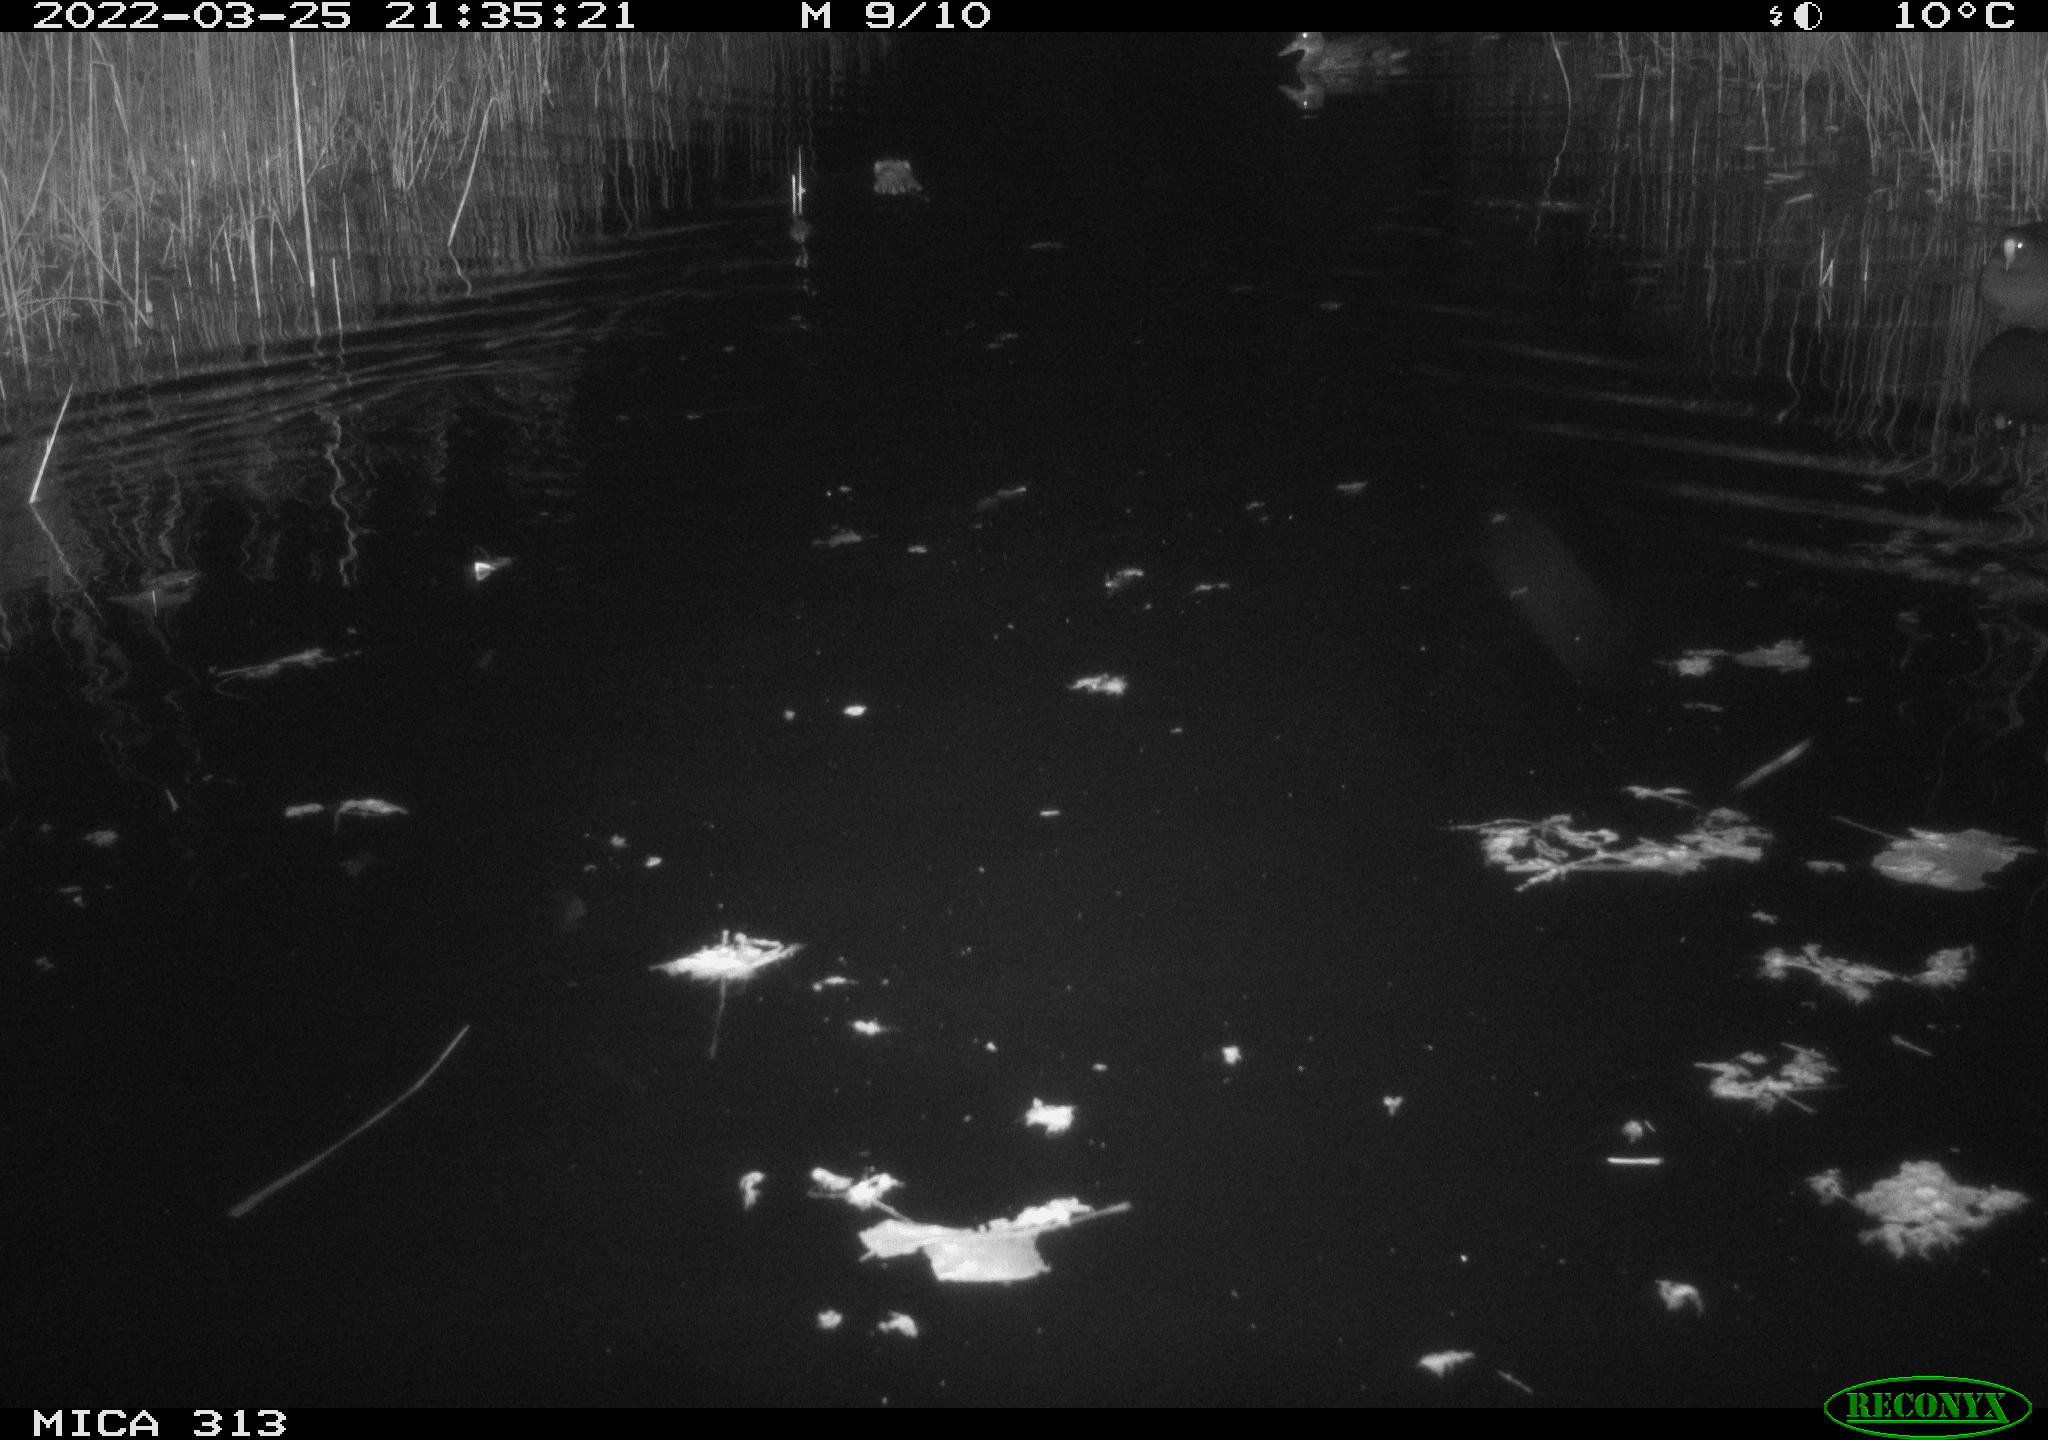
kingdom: Animalia
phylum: Chordata
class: Mammalia
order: Rodentia
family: Cricetidae
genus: Ondatra
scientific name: Ondatra zibethicus
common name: Muskrat
